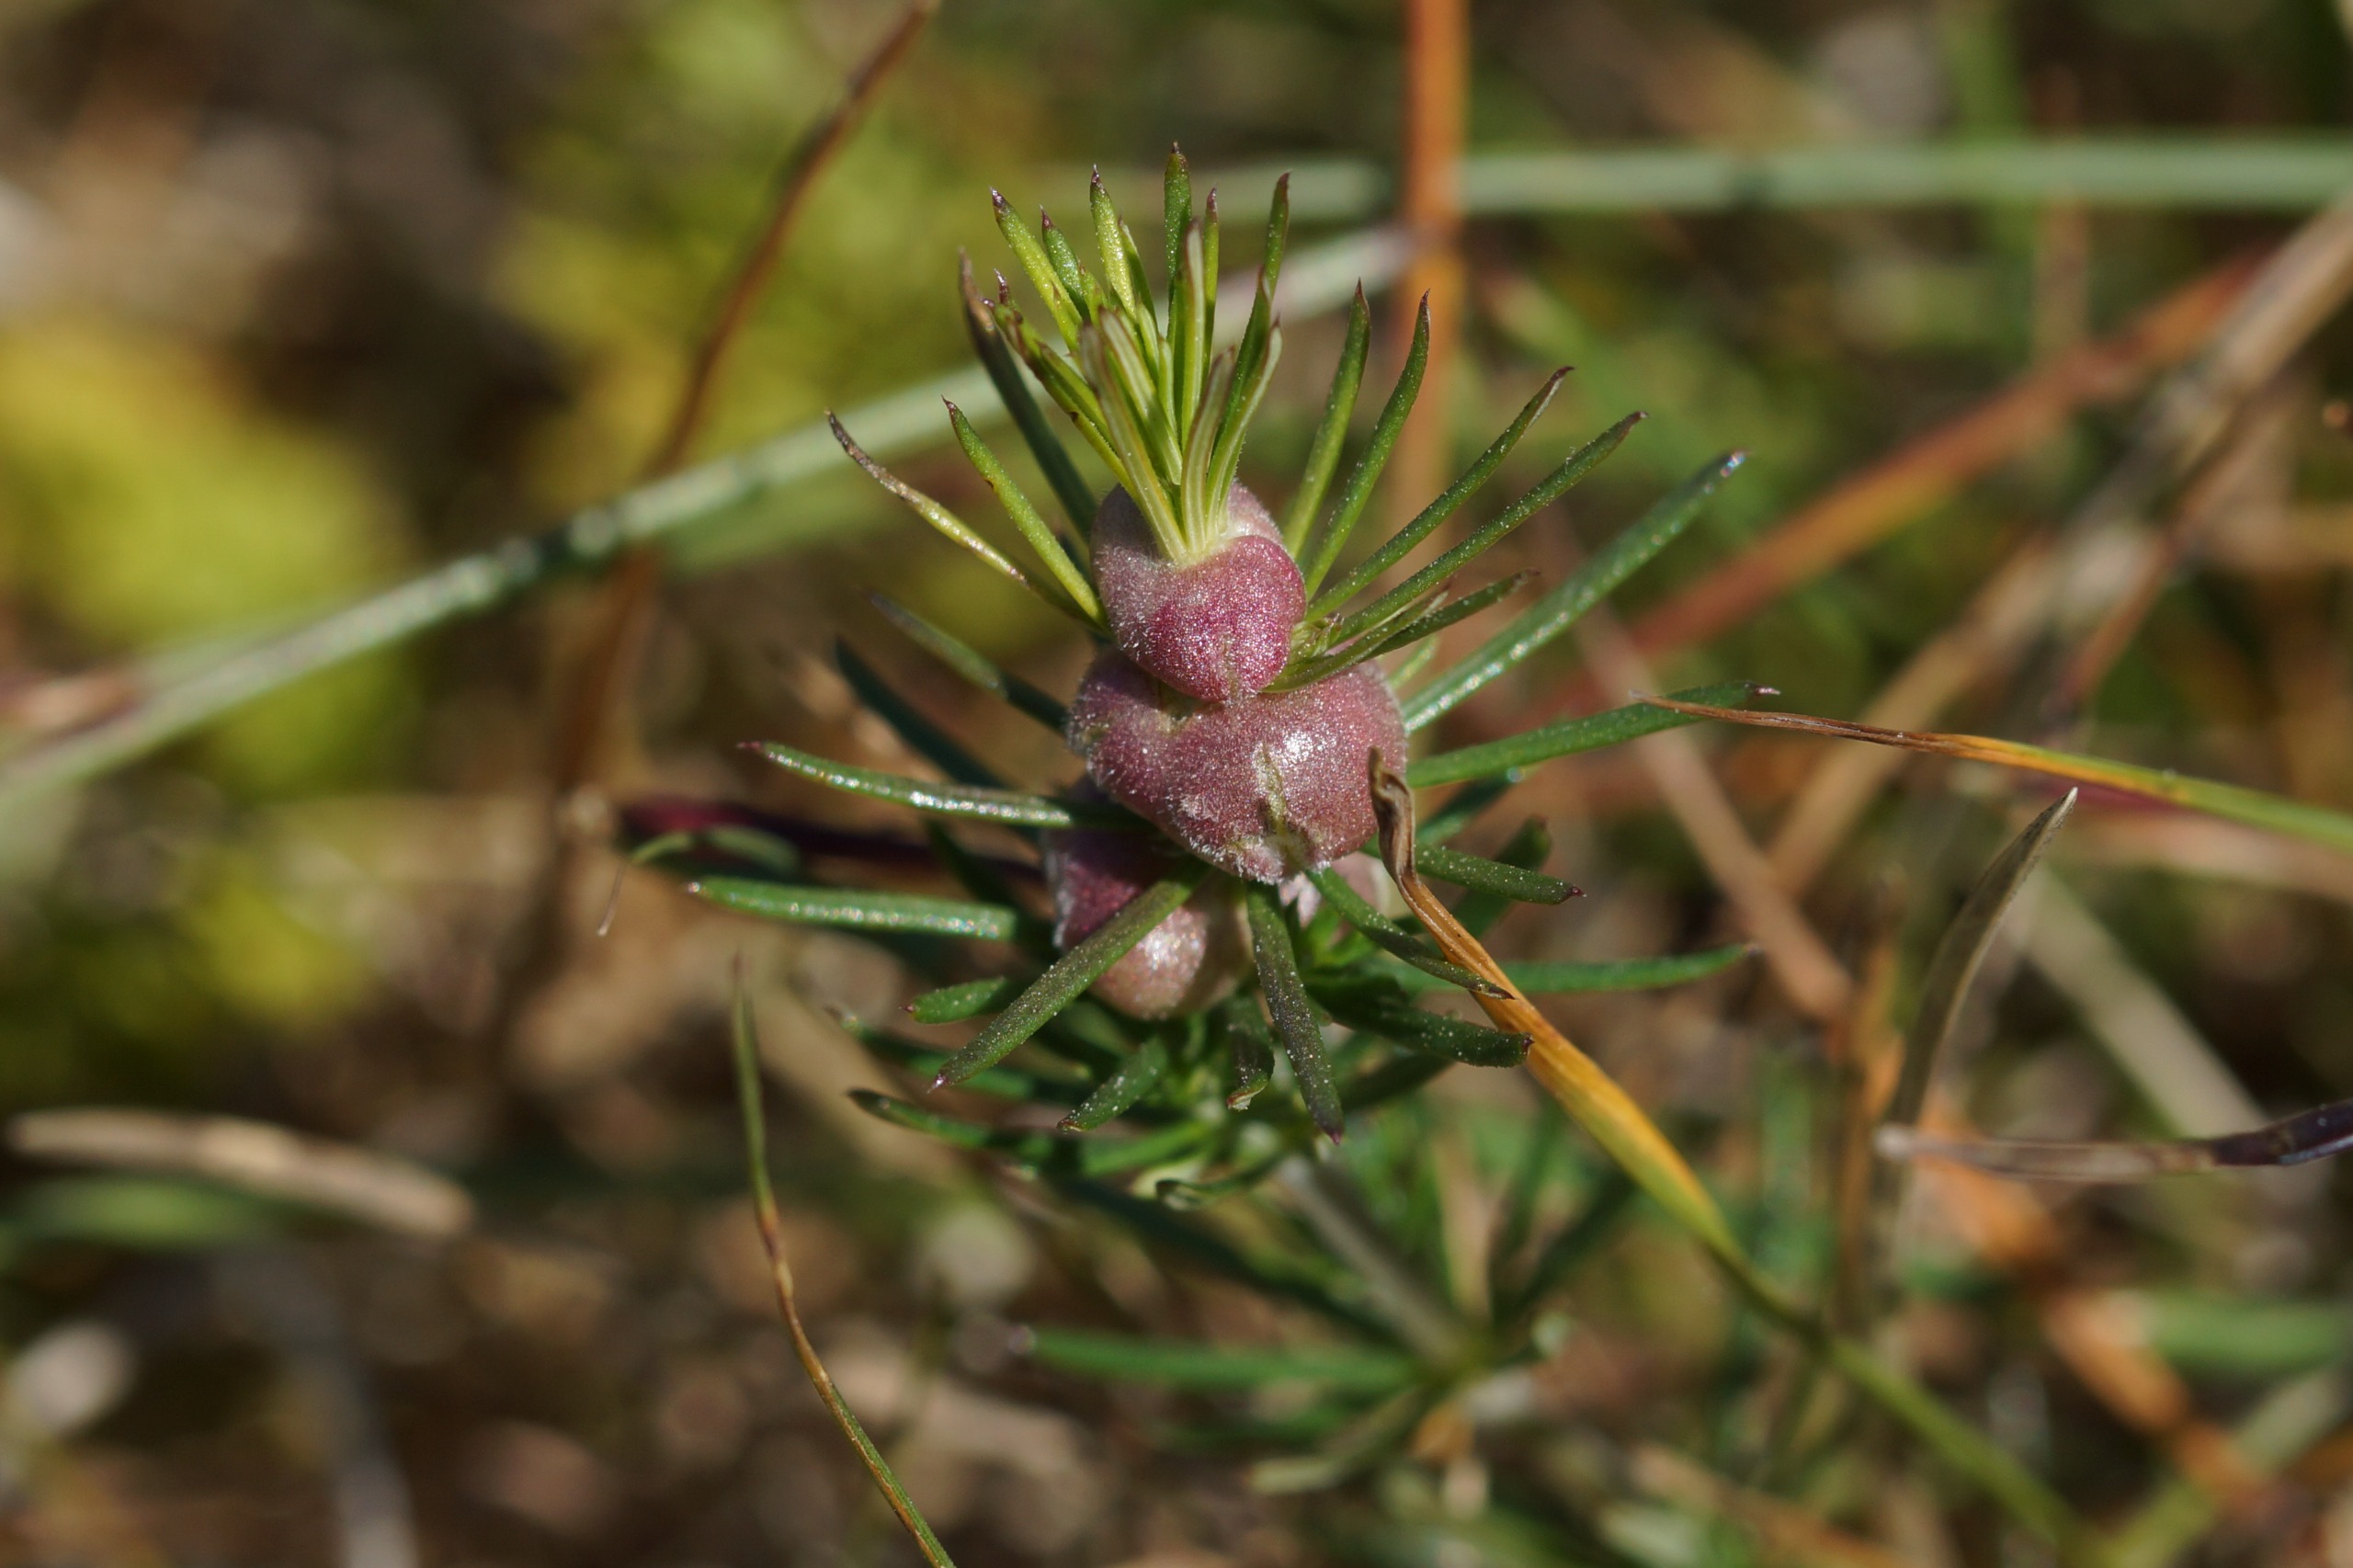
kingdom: Animalia
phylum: Arthropoda
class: Insecta
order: Diptera
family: Cecidomyiidae
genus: Geocrypta
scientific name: Geocrypta galii
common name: Snerrestængelgalmyg
